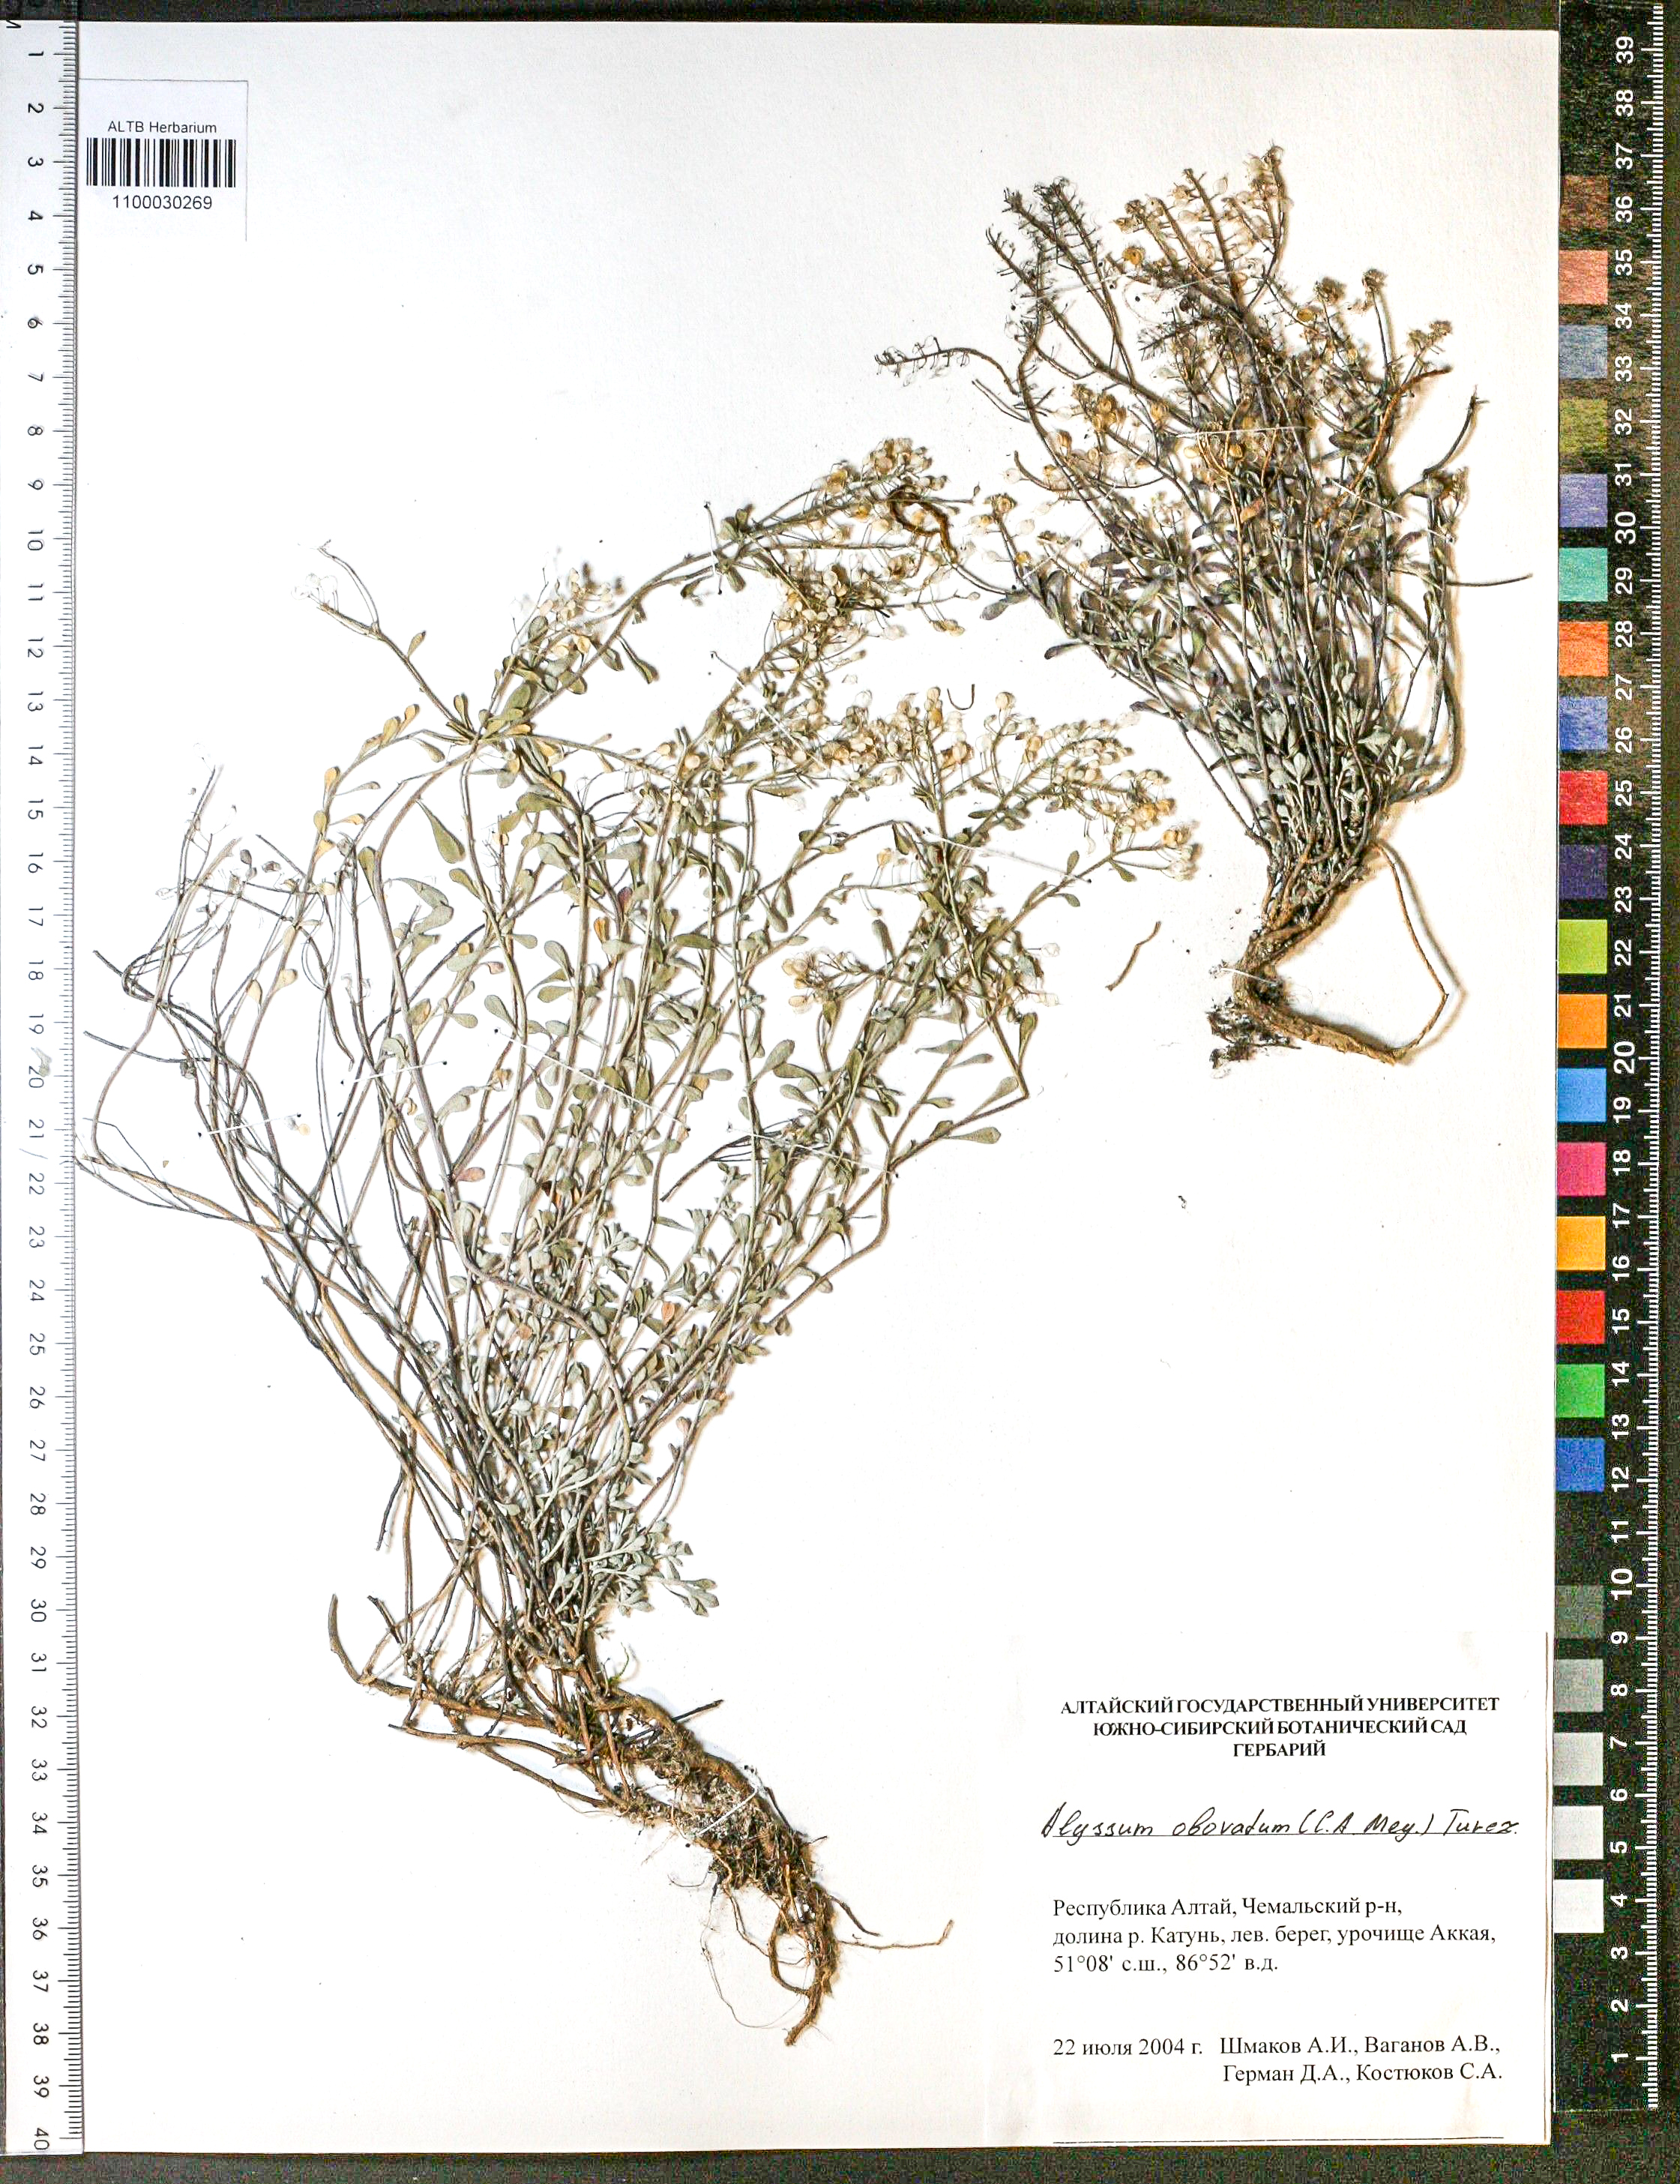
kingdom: Plantae
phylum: Tracheophyta
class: Magnoliopsida
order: Brassicales
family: Brassicaceae
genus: Odontarrhena
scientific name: Odontarrhena obovata
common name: American alyssum
